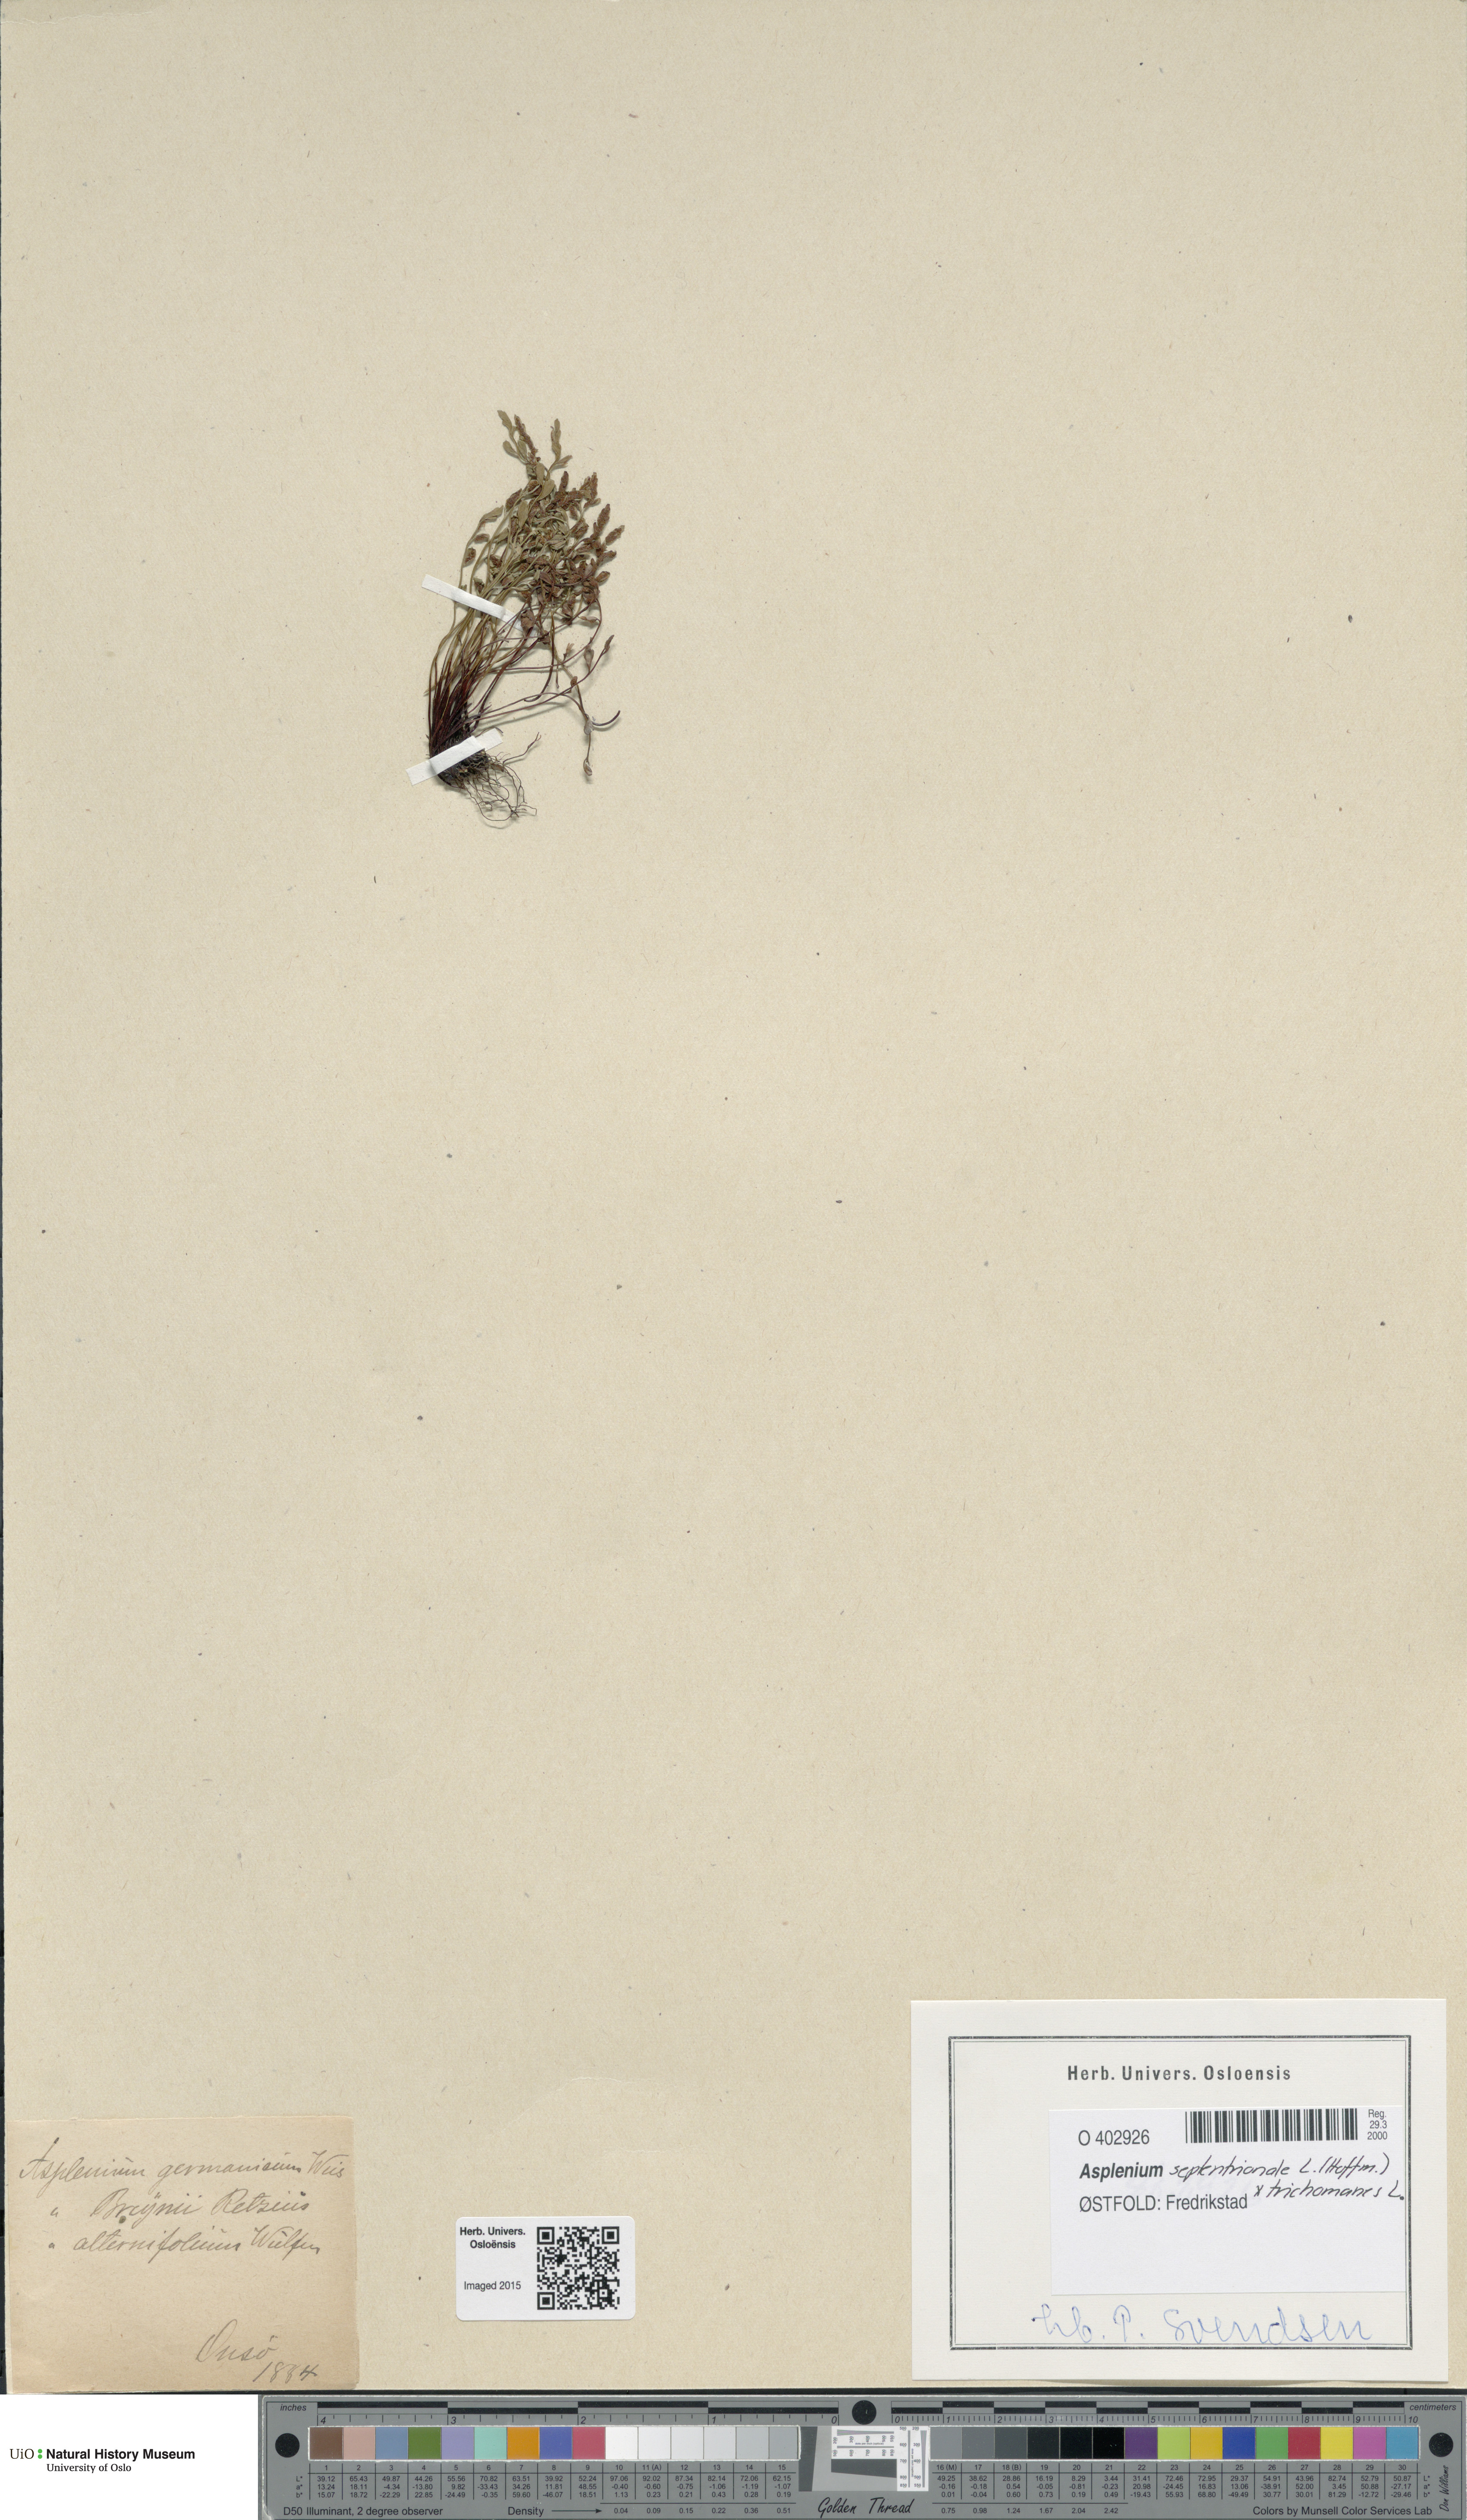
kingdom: Plantae
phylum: Tracheophyta
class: Polypodiopsida
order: Polypodiales
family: Aspleniaceae
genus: Asplenium
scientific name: Asplenium
